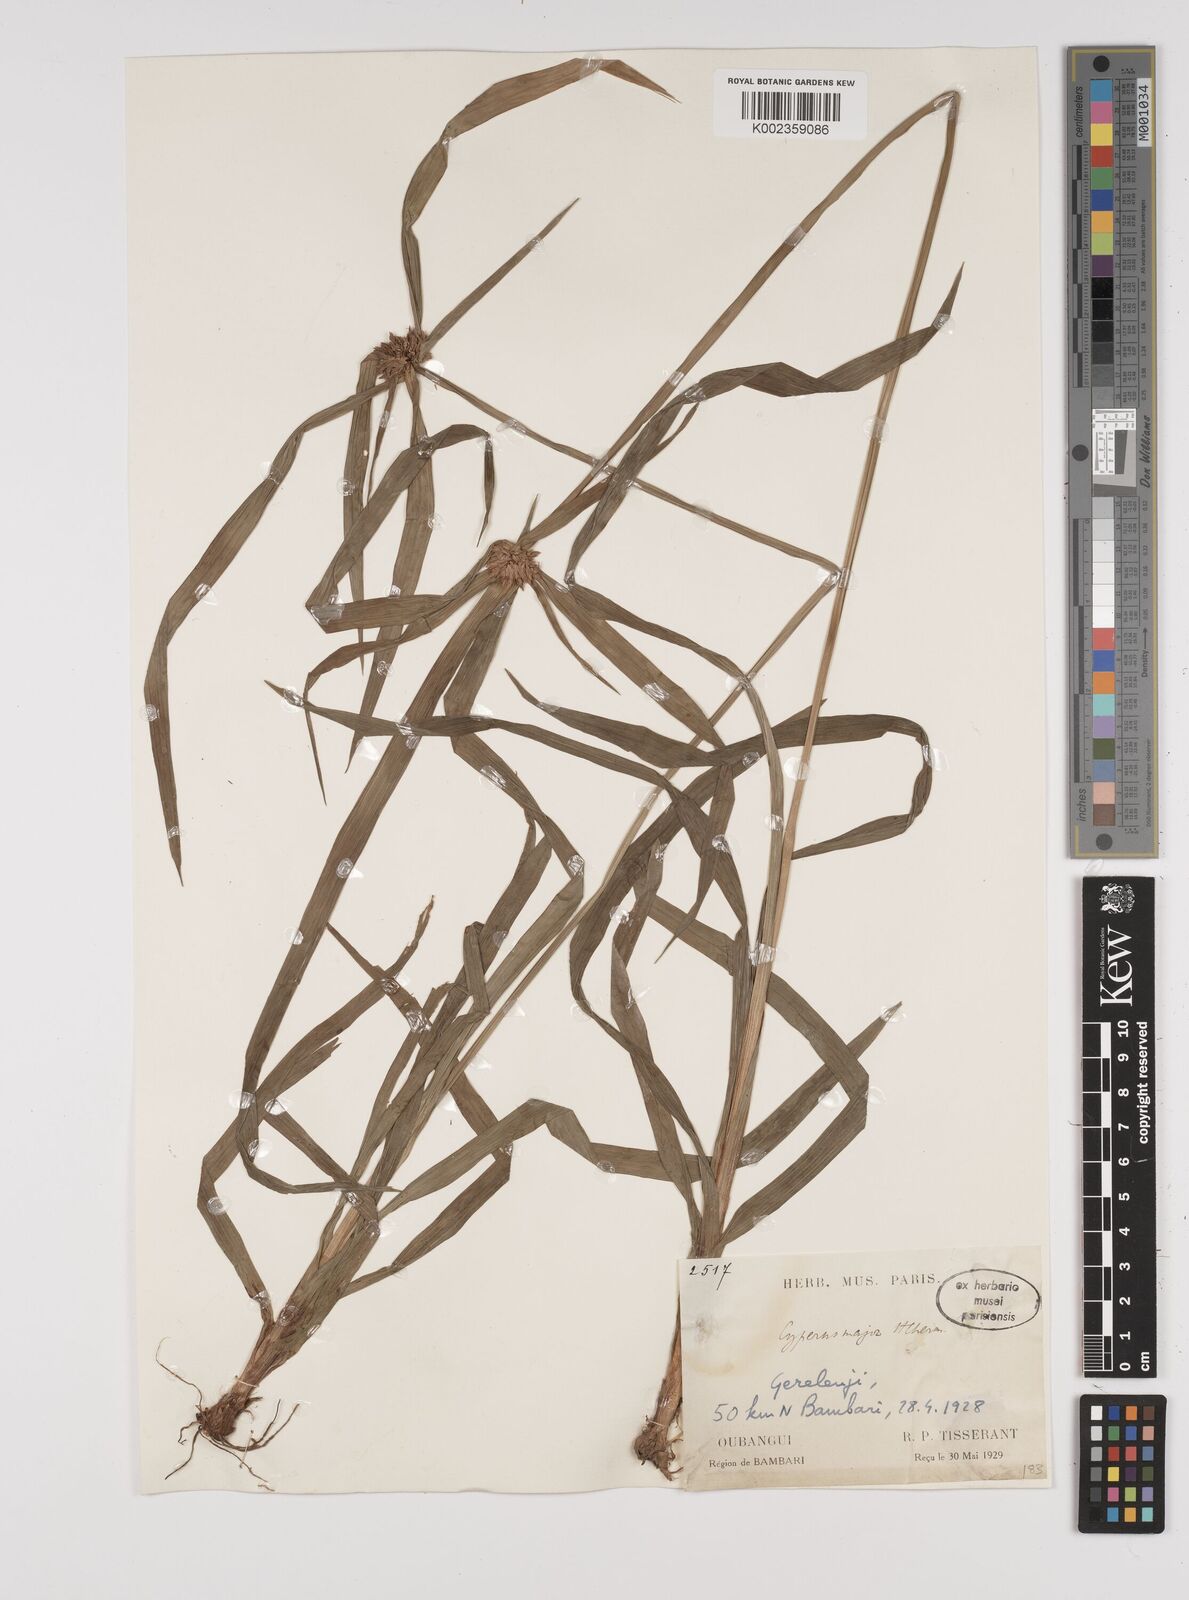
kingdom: Plantae
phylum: Tracheophyta
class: Liliopsida
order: Poales
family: Cyperaceae
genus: Cyperus
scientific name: Cyperus mapanioides
